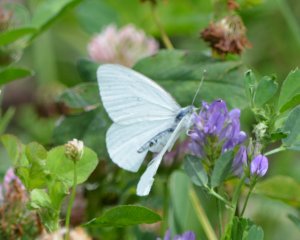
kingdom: Animalia
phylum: Arthropoda
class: Insecta
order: Lepidoptera
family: Pieridae
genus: Pieris
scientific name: Pieris oleracea
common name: Mustard White
